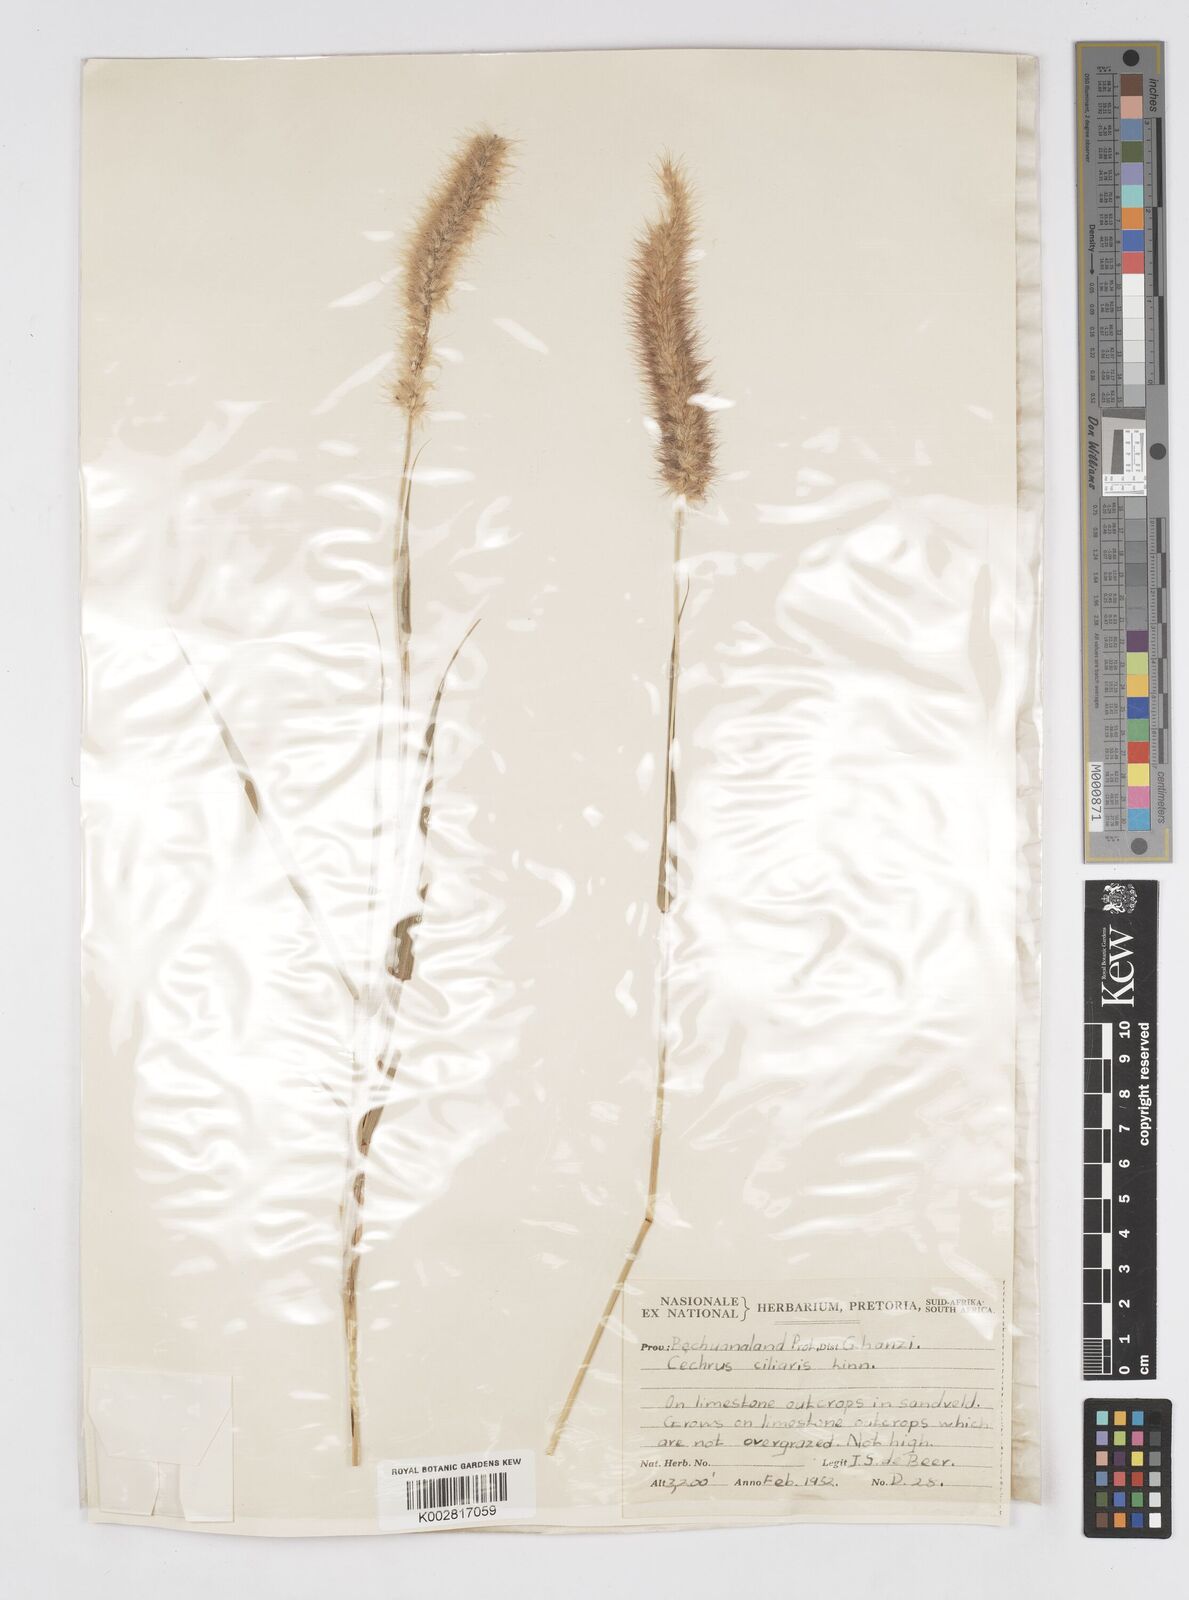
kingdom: Plantae
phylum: Tracheophyta
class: Liliopsida
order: Poales
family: Poaceae
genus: Cenchrus
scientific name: Cenchrus ciliaris
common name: Buffelgrass
